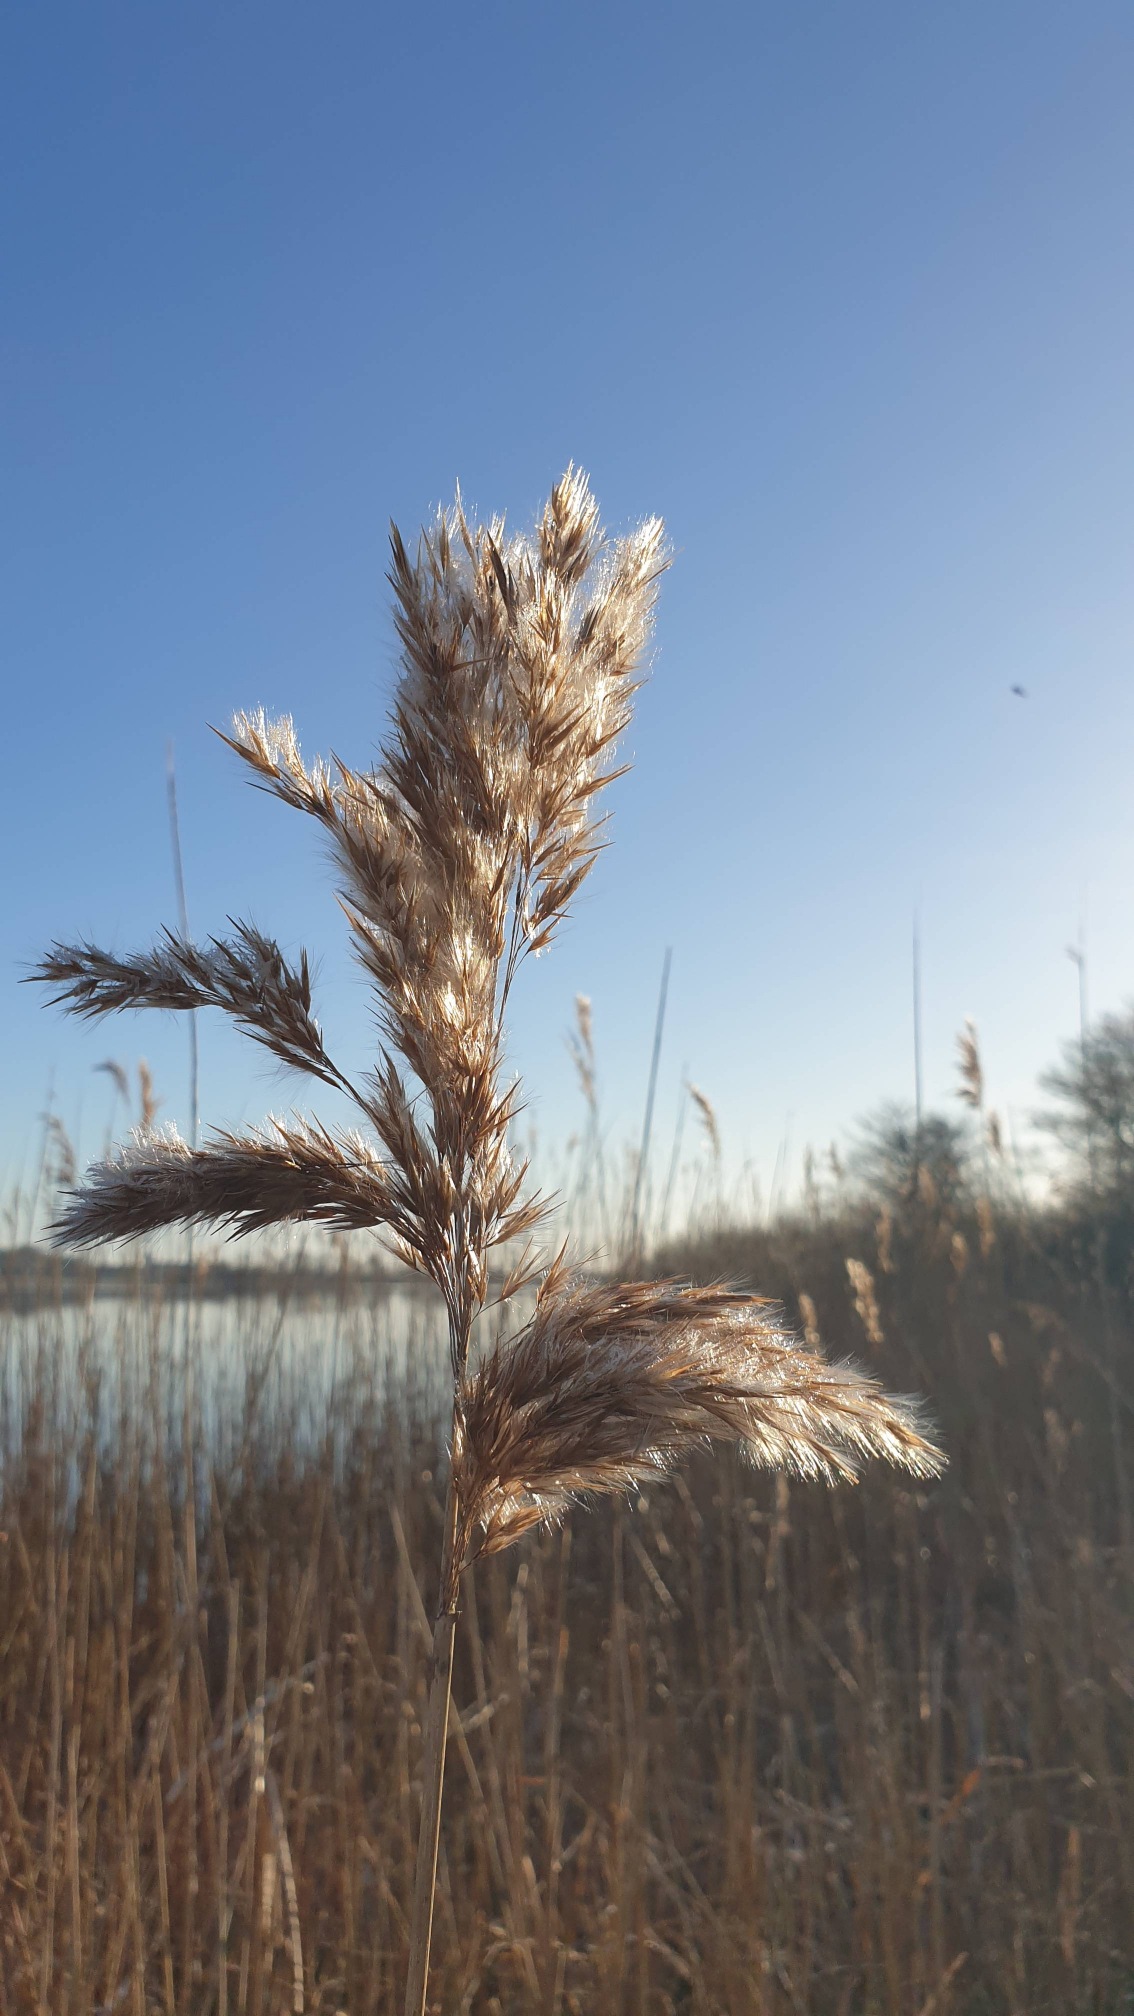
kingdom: Plantae
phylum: Tracheophyta
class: Liliopsida
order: Poales
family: Poaceae
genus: Phragmites
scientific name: Phragmites australis
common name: Tagrør
